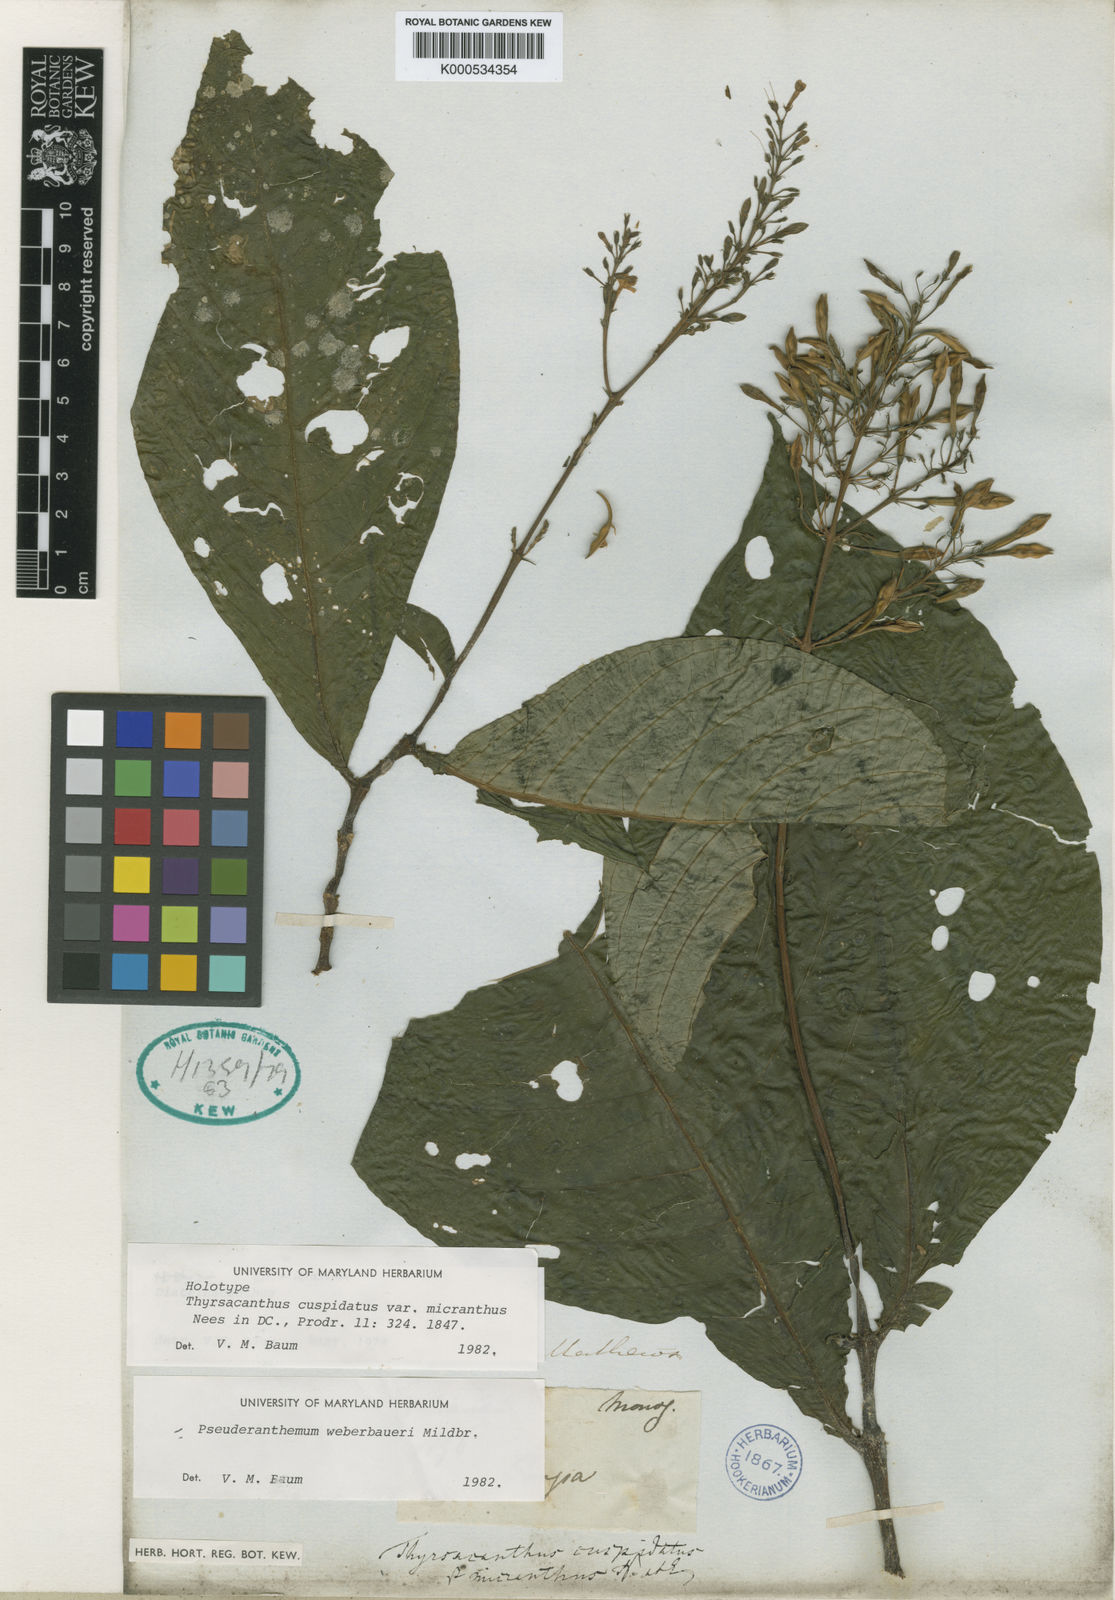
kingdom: Plantae
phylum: Tracheophyta
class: Magnoliopsida
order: Lamiales
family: Acanthaceae
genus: Pseuderanthemum
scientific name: Pseuderanthemum weberbaueri
